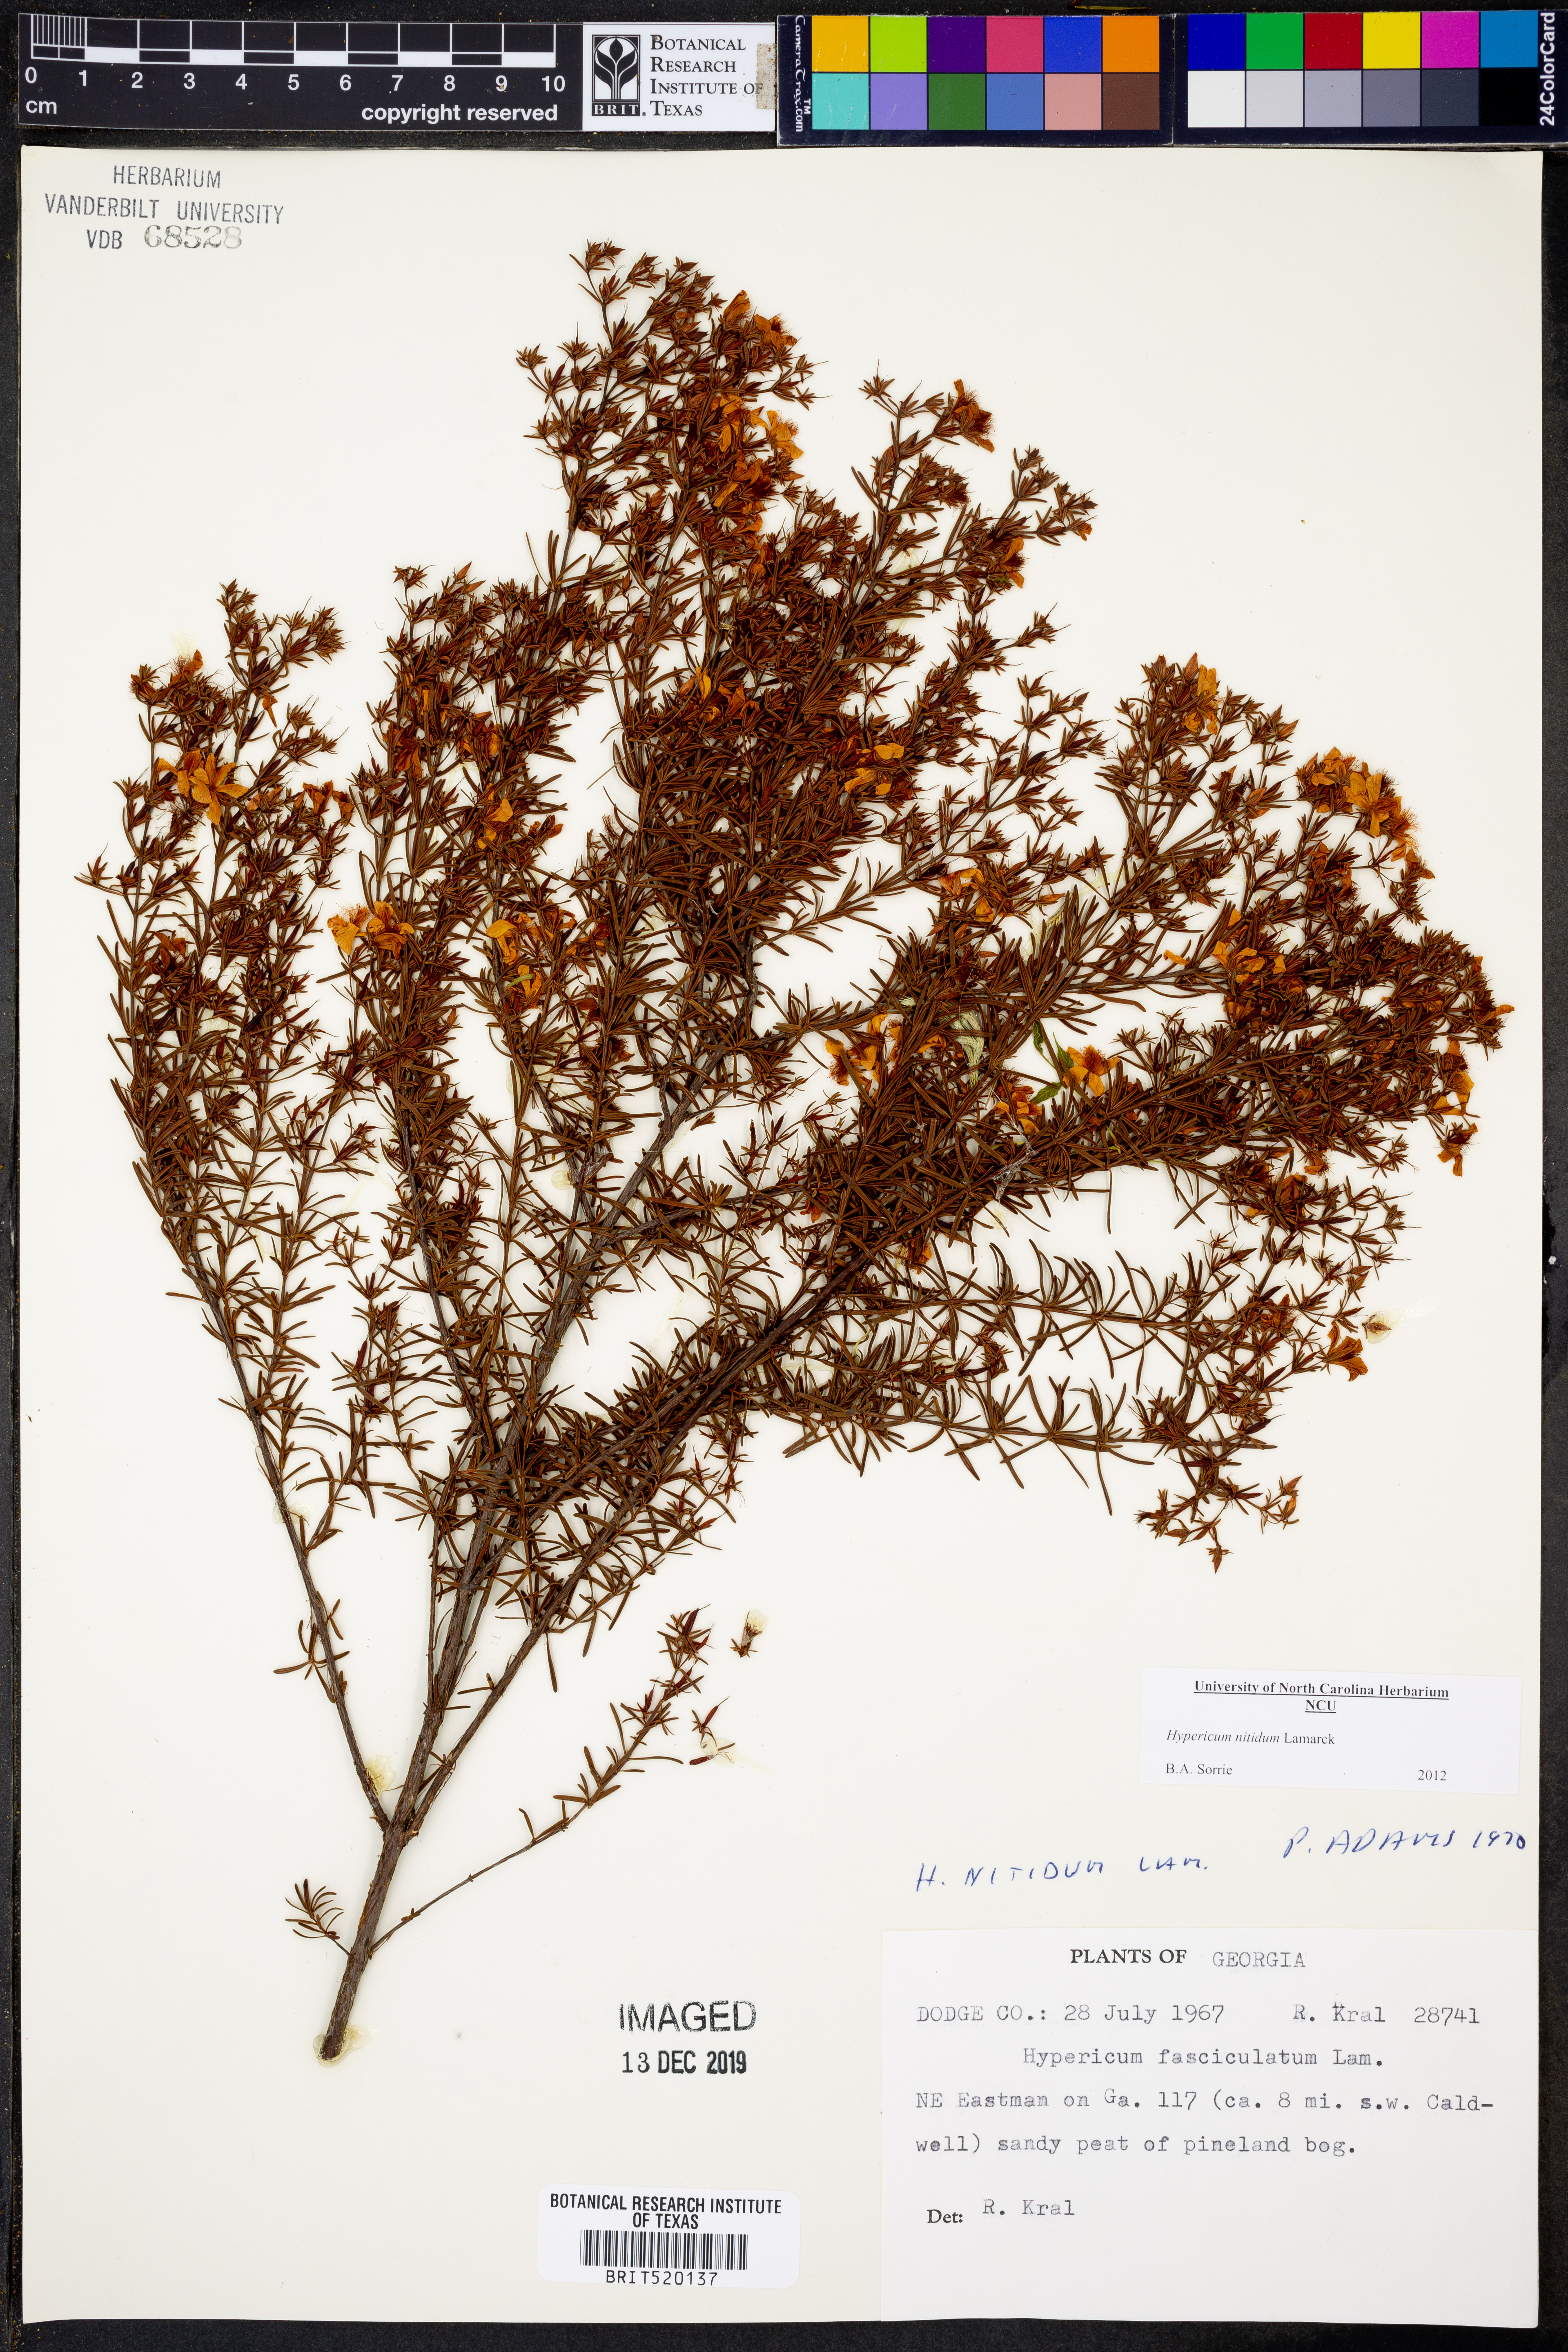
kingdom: Plantae
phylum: Tracheophyta
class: Magnoliopsida
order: Malpighiales
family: Hypericaceae
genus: Hypericum
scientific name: Hypericum nitidum
